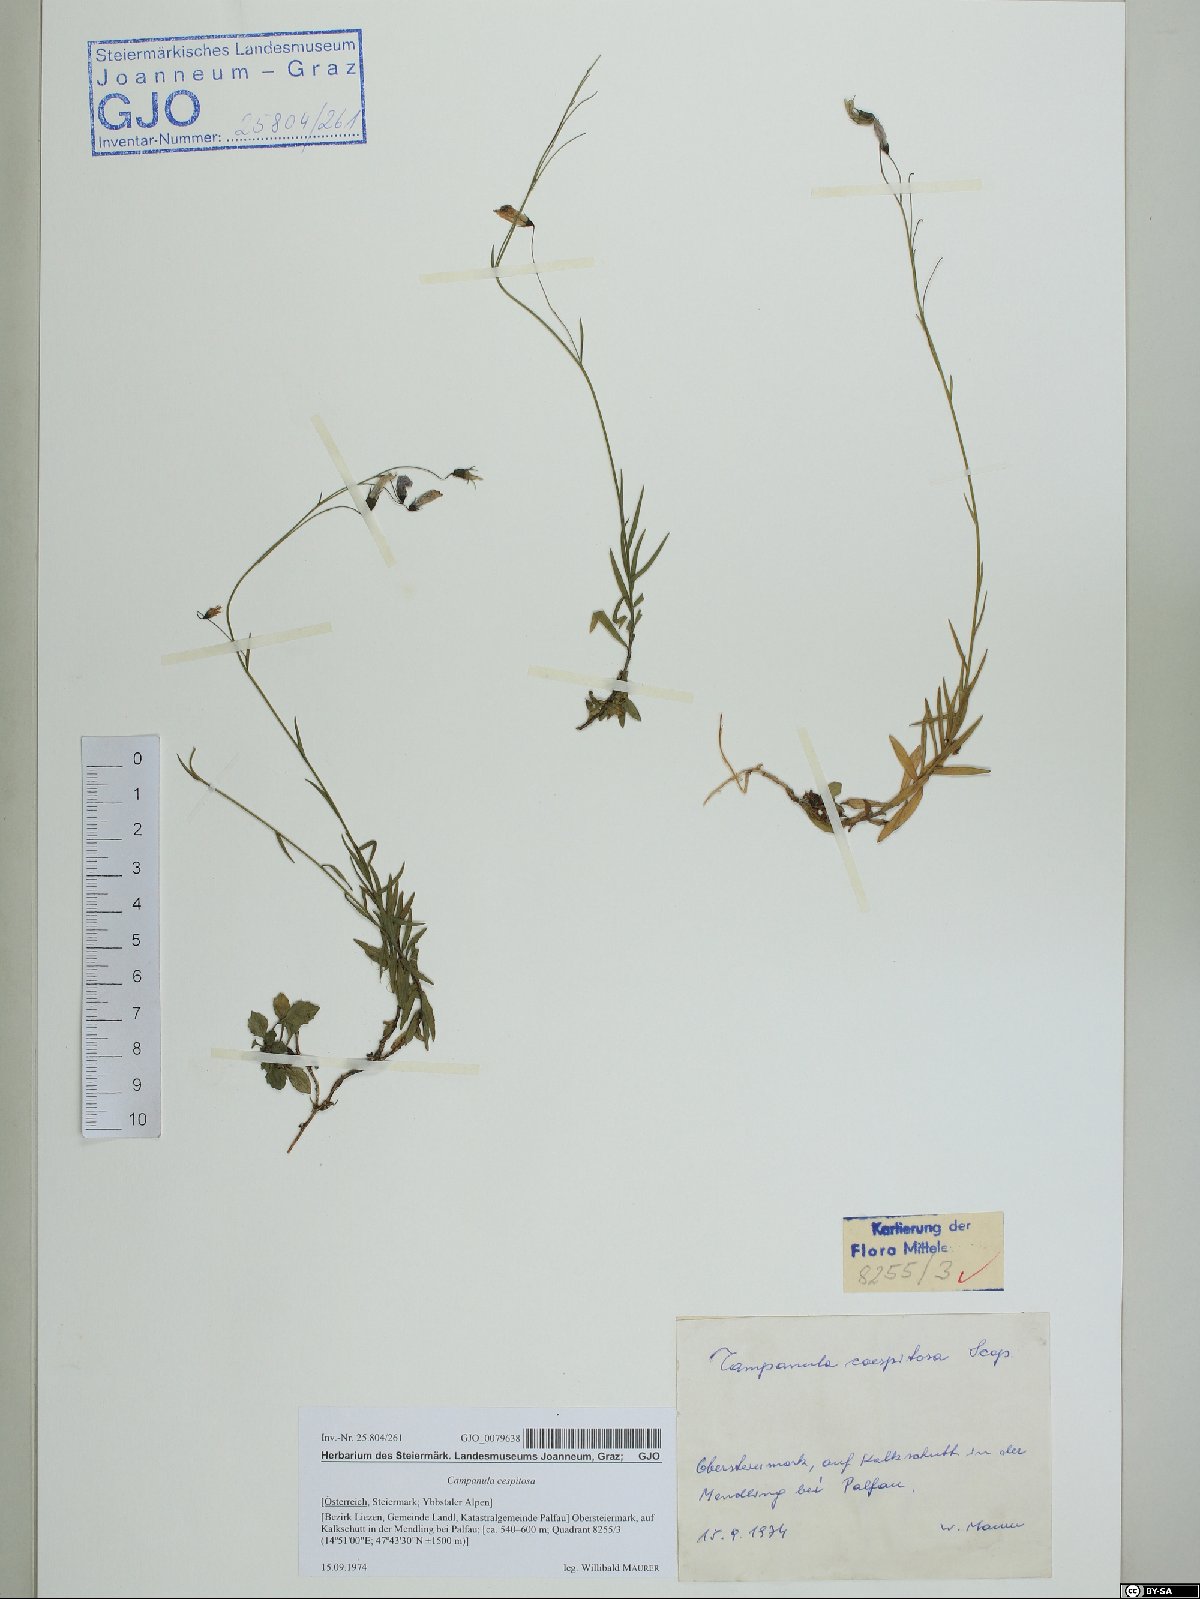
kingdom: Plantae
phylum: Tracheophyta
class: Magnoliopsida
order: Asterales
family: Campanulaceae
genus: Campanula
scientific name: Campanula cespitosa
